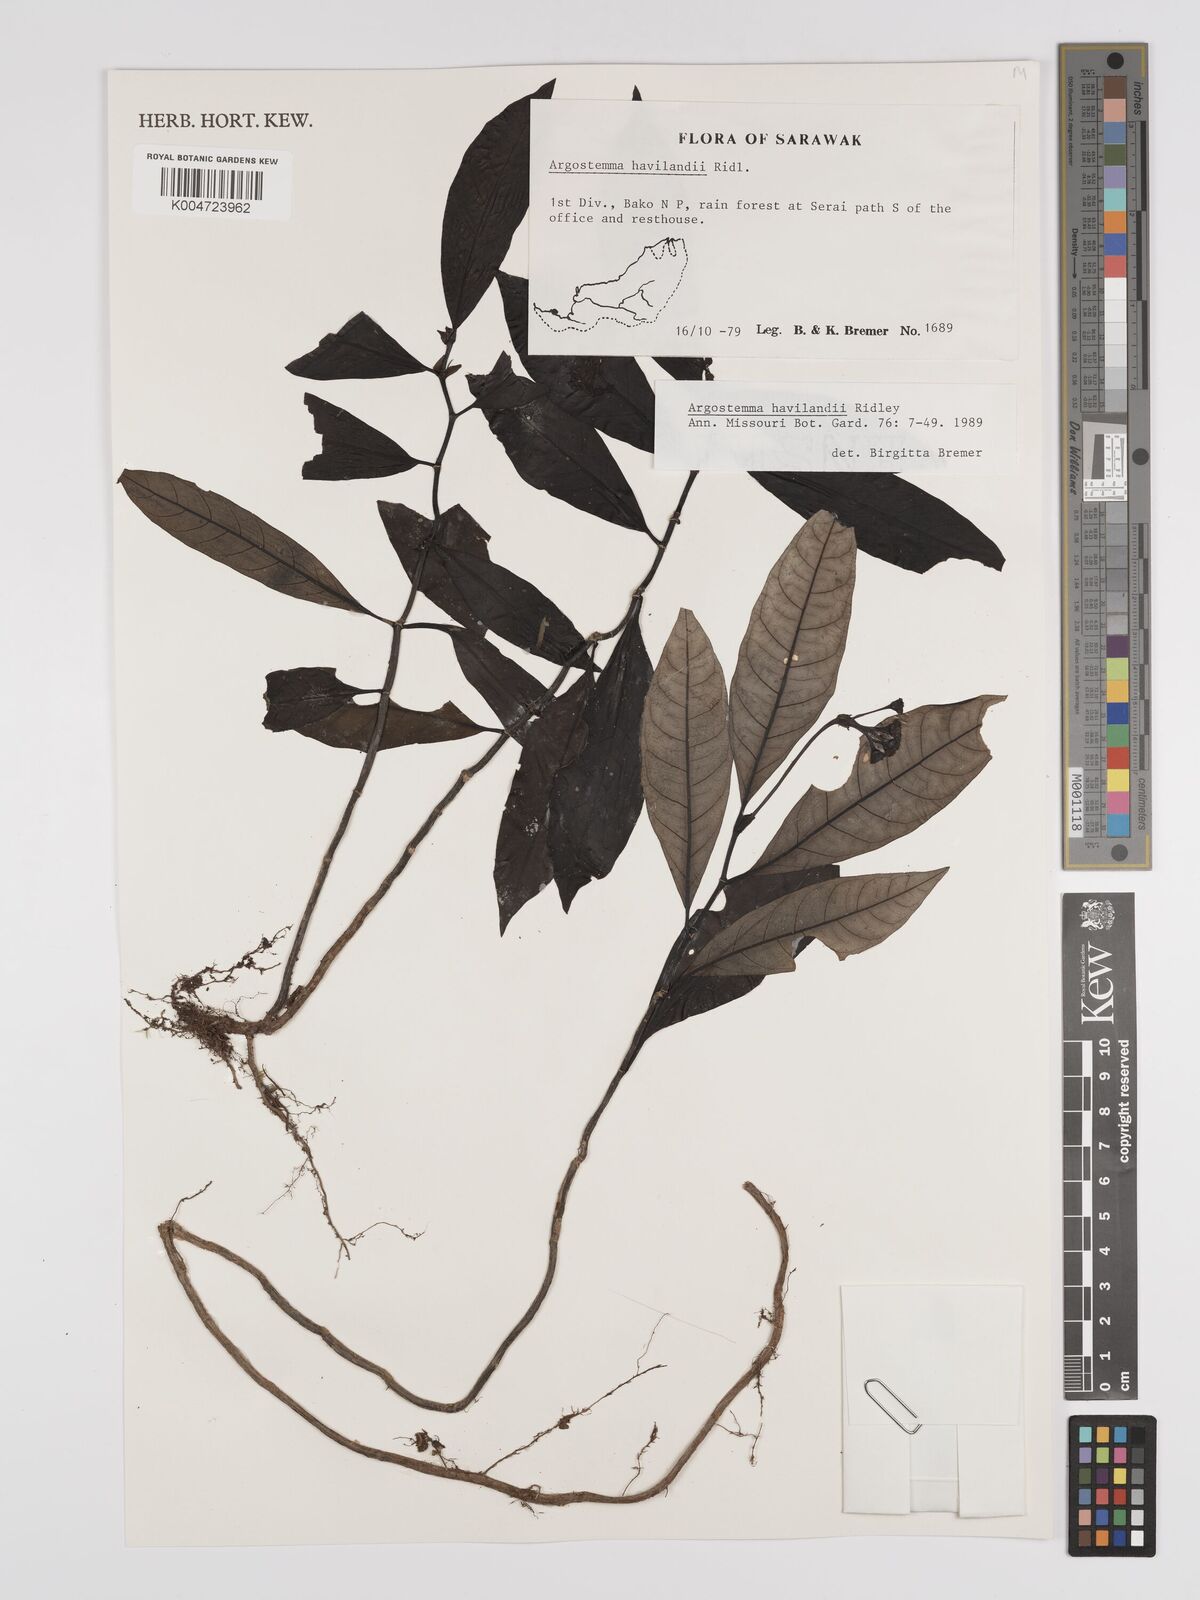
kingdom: Plantae
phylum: Tracheophyta
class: Magnoliopsida
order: Gentianales
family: Rubiaceae
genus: Argostemma
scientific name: Argostemma havilandii
